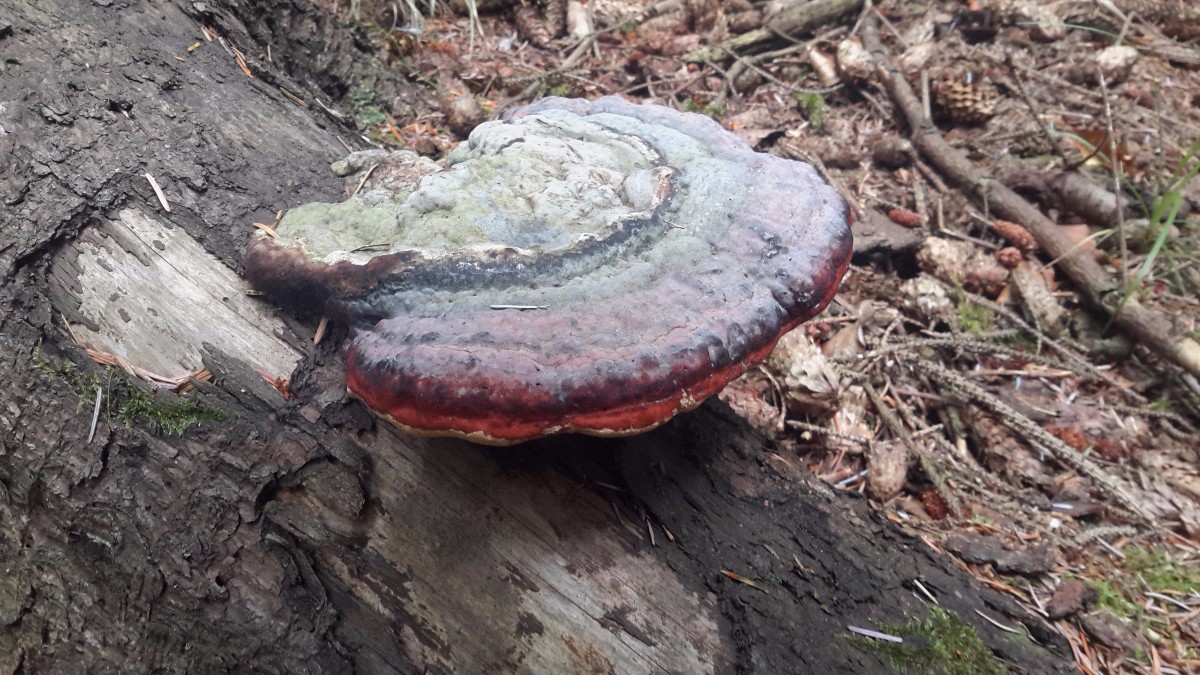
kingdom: Fungi
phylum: Basidiomycota
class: Agaricomycetes
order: Polyporales
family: Fomitopsidaceae
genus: Fomitopsis
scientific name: Fomitopsis pinicola
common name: randbæltet hovporesvamp
